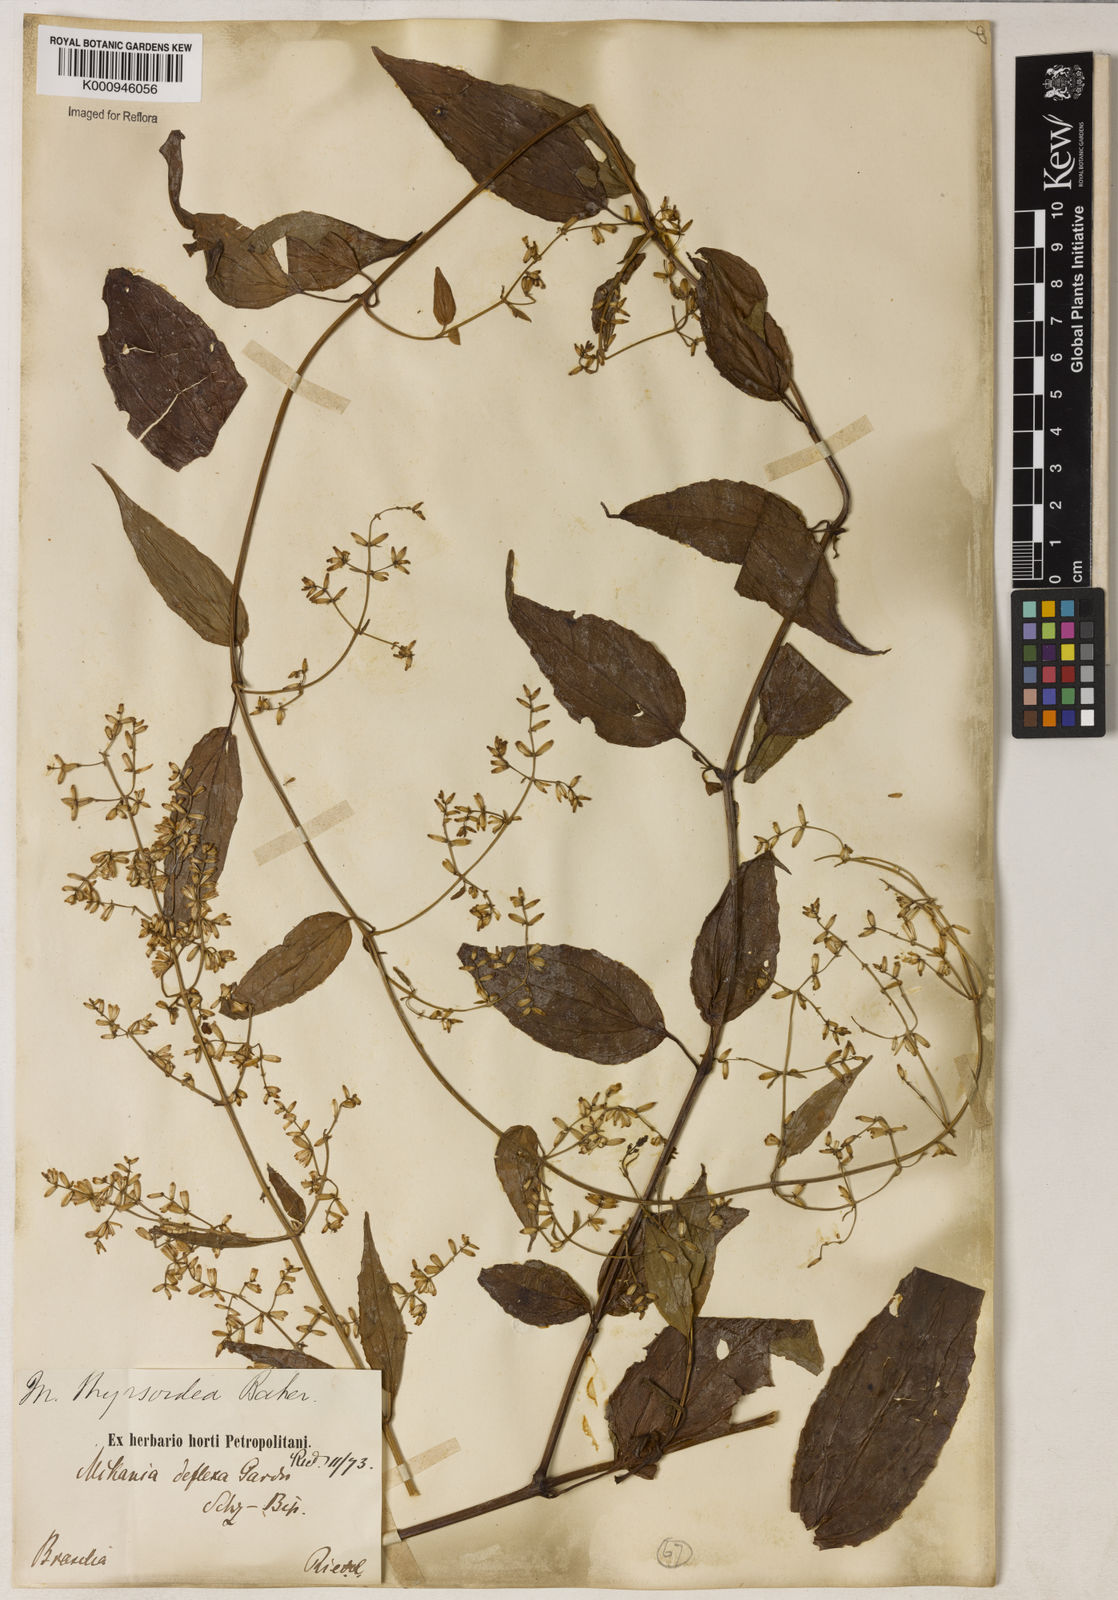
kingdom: Plantae
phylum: Tracheophyta
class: Magnoliopsida
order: Asterales
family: Asteraceae
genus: Mikania
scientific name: Mikania lundiana
